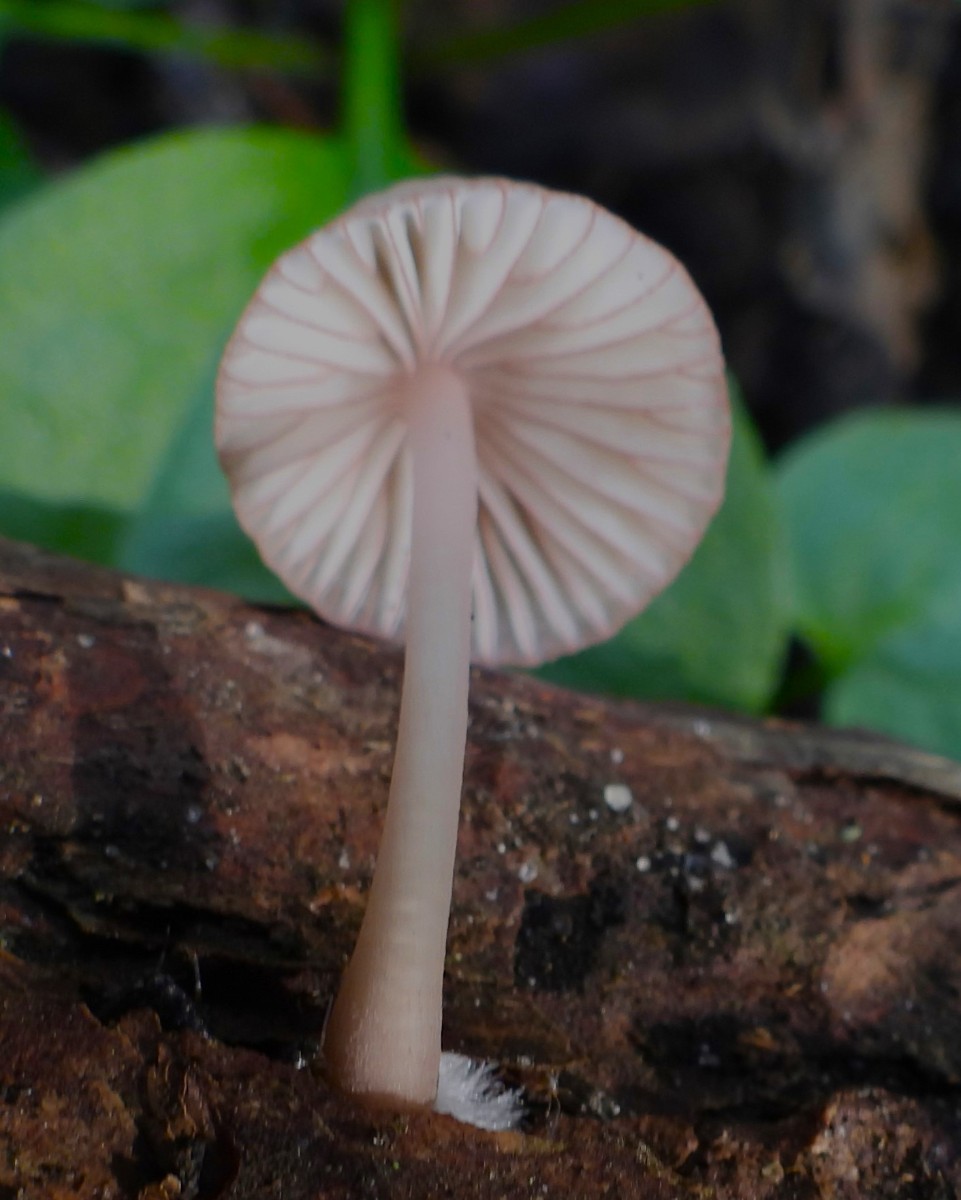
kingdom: Fungi
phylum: Basidiomycota
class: Agaricomycetes
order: Agaricales
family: Mycenaceae
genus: Mycena
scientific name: Mycena rubromarginata
